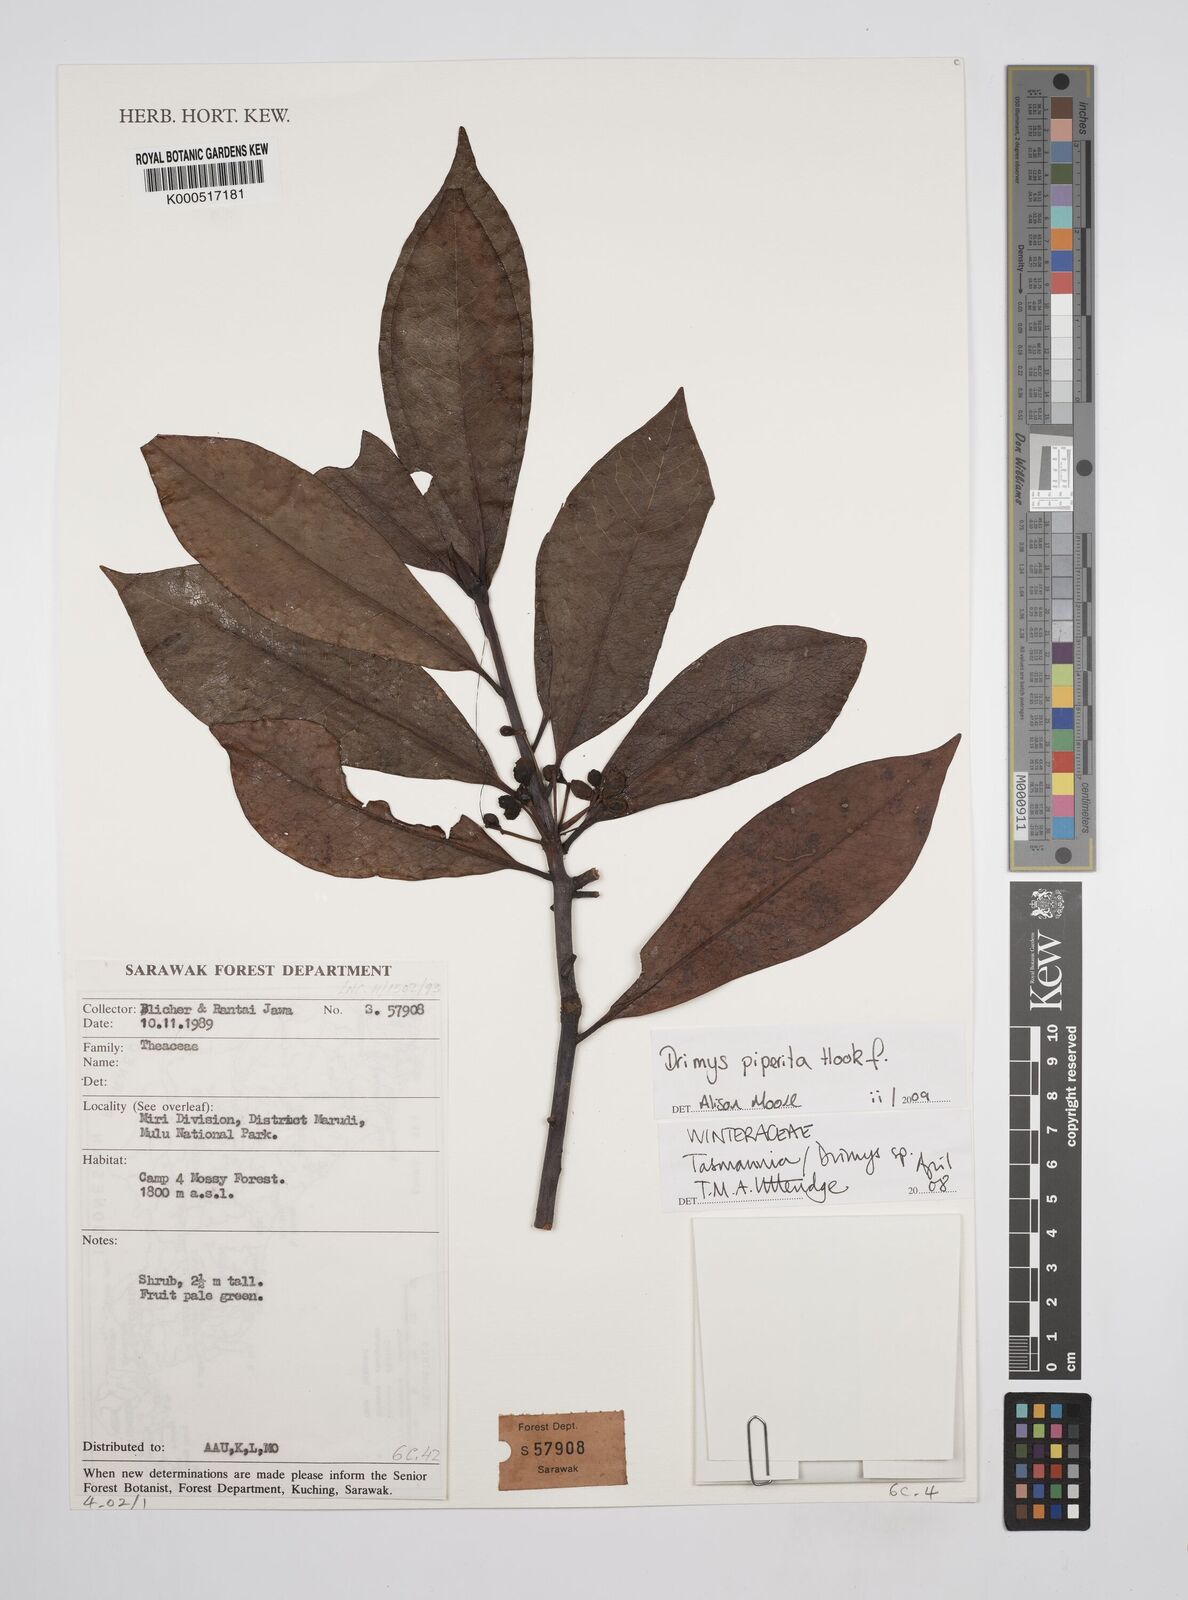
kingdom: Plantae
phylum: Tracheophyta
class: Magnoliopsida
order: Canellales
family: Winteraceae
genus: Drimys
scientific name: Drimys piperita
